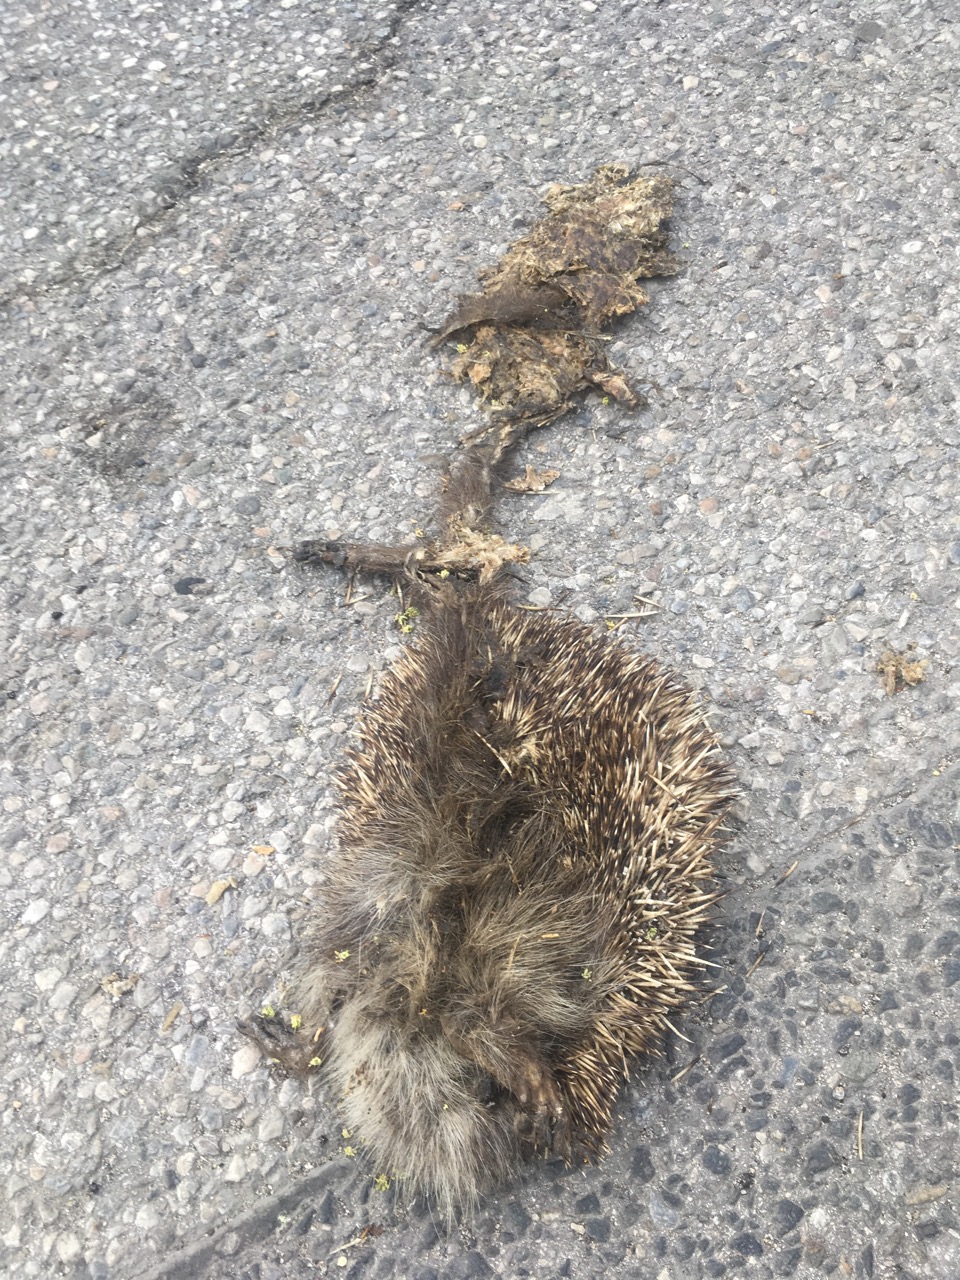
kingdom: Animalia
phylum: Chordata
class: Mammalia
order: Erinaceomorpha
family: Erinaceidae
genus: Erinaceus
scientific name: Erinaceus
